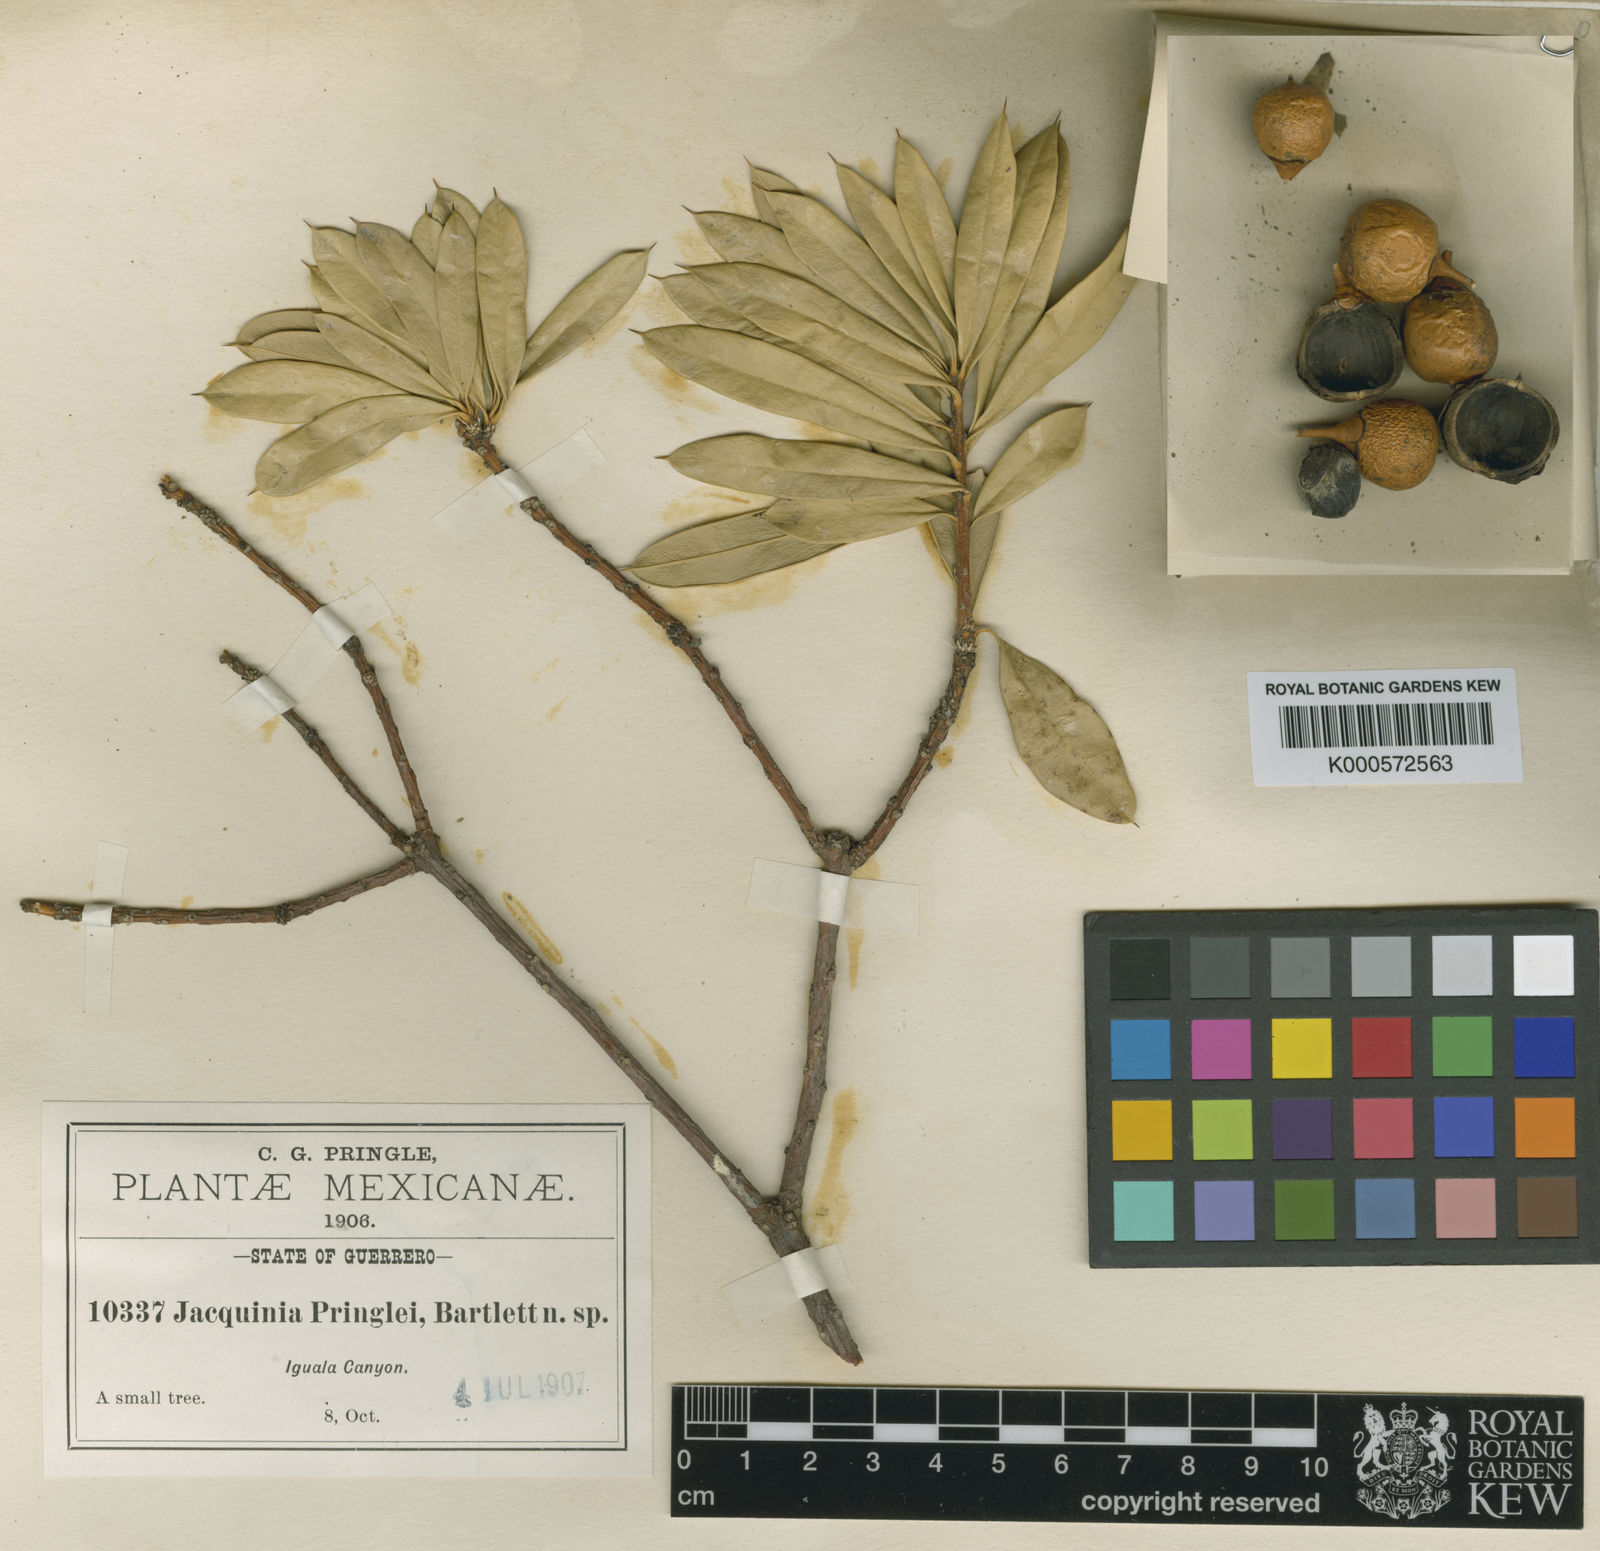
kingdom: Plantae
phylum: Tracheophyta
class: Magnoliopsida
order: Ericales
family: Primulaceae
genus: Bonellia
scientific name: Bonellia pringlei
